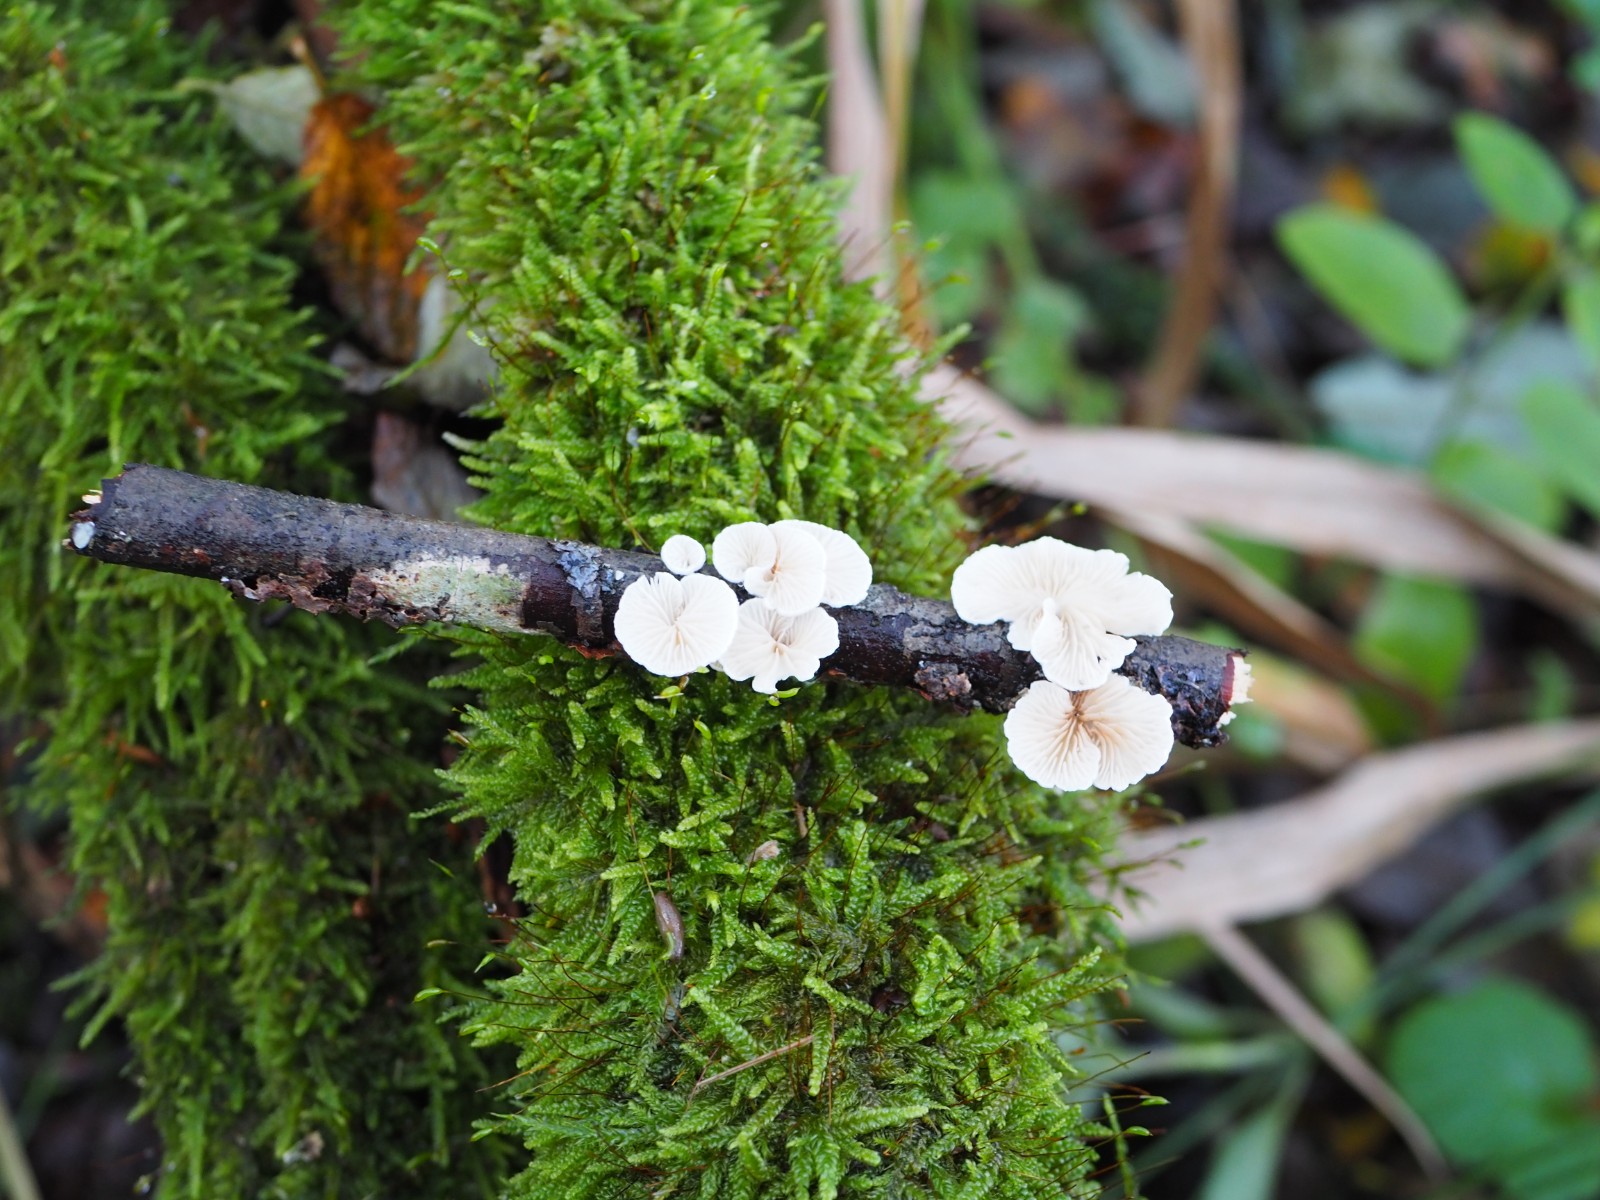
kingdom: Fungi
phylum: Basidiomycota
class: Agaricomycetes
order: Agaricales
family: Crepidotaceae
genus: Crepidotus
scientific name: Crepidotus cesatii
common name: almindelig muslingesvamp
